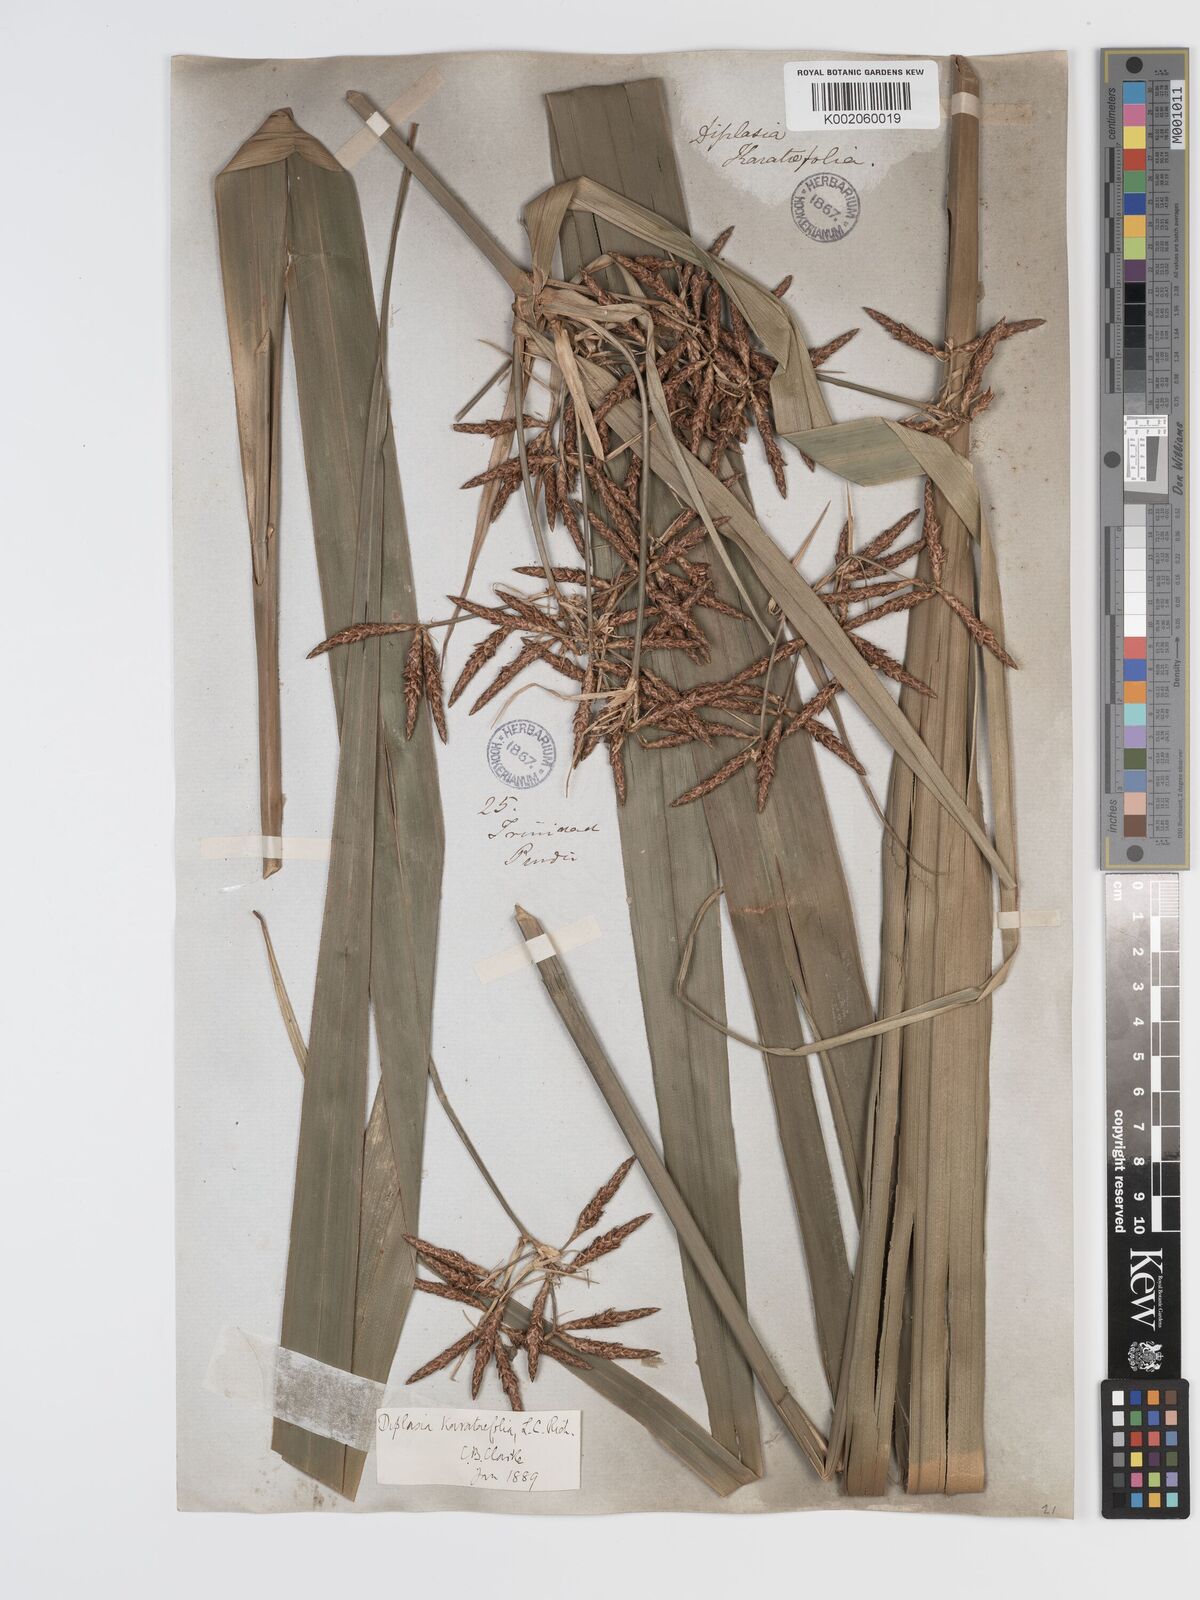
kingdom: Plantae
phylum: Tracheophyta
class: Liliopsida
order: Poales
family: Cyperaceae
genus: Diplasia
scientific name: Diplasia karatifolia
